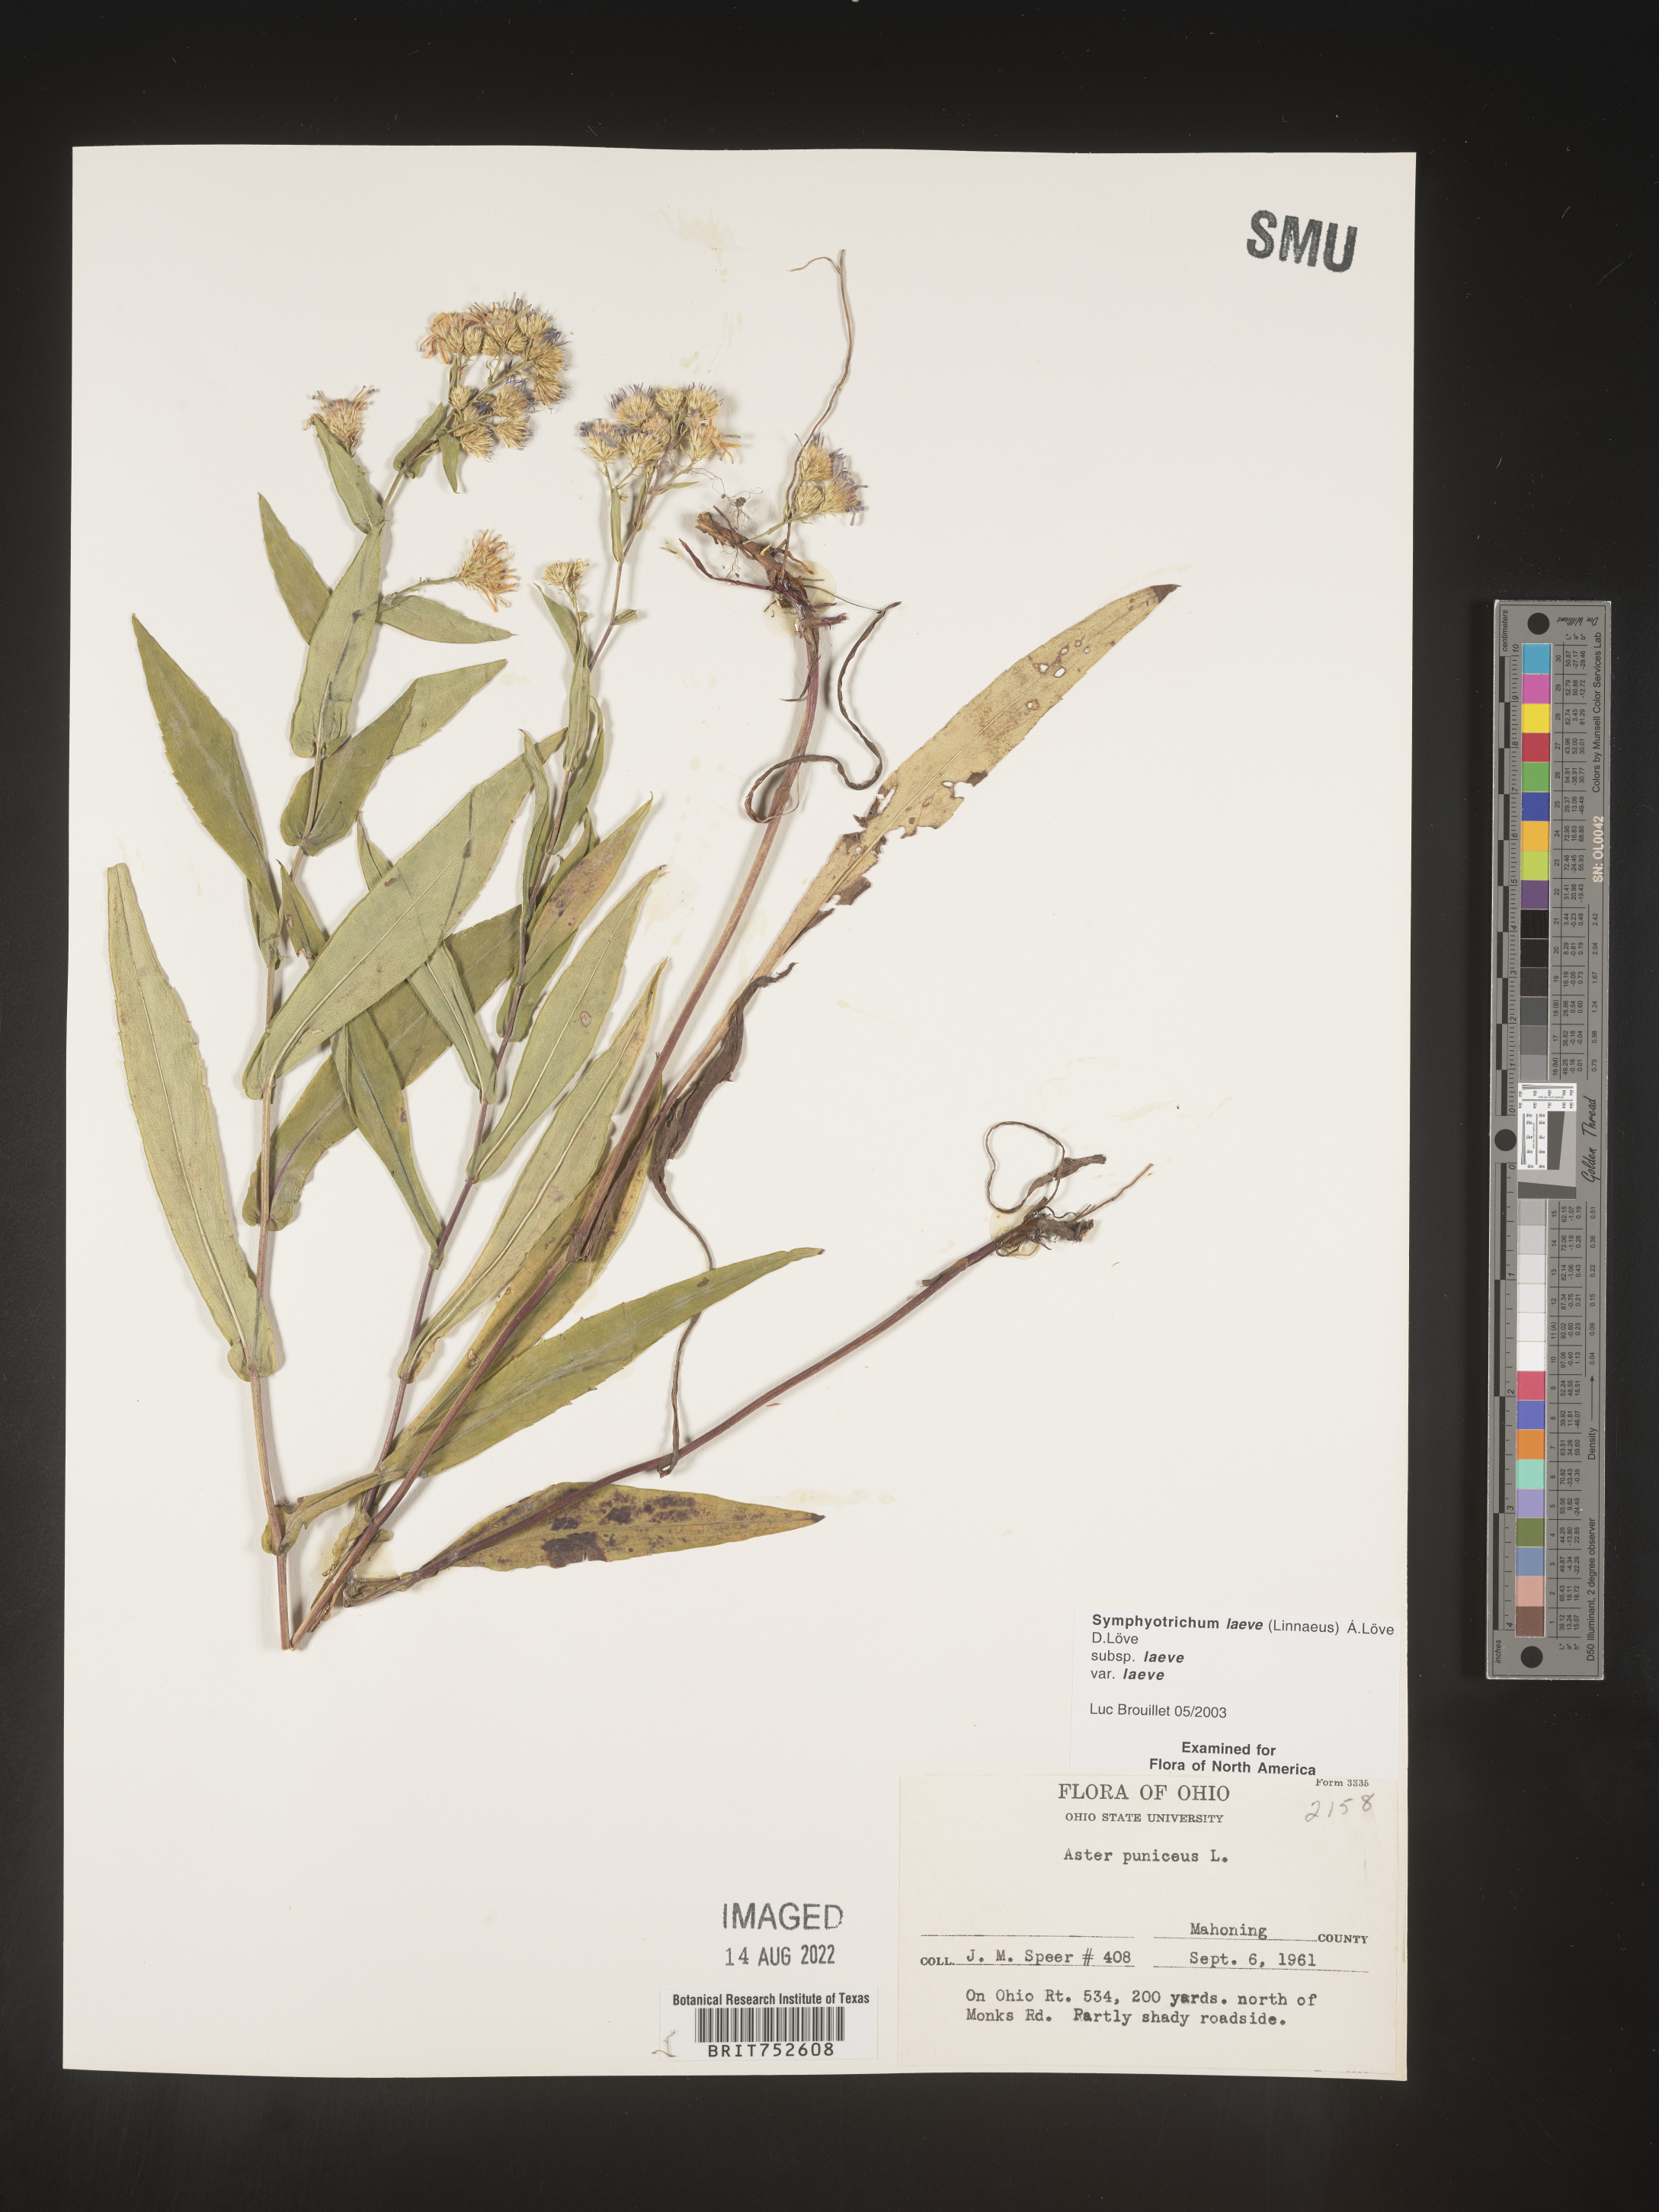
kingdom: Plantae
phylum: Tracheophyta
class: Magnoliopsida
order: Asterales
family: Asteraceae
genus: Symphyotrichum
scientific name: Symphyotrichum laeve
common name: Glaucous aster
